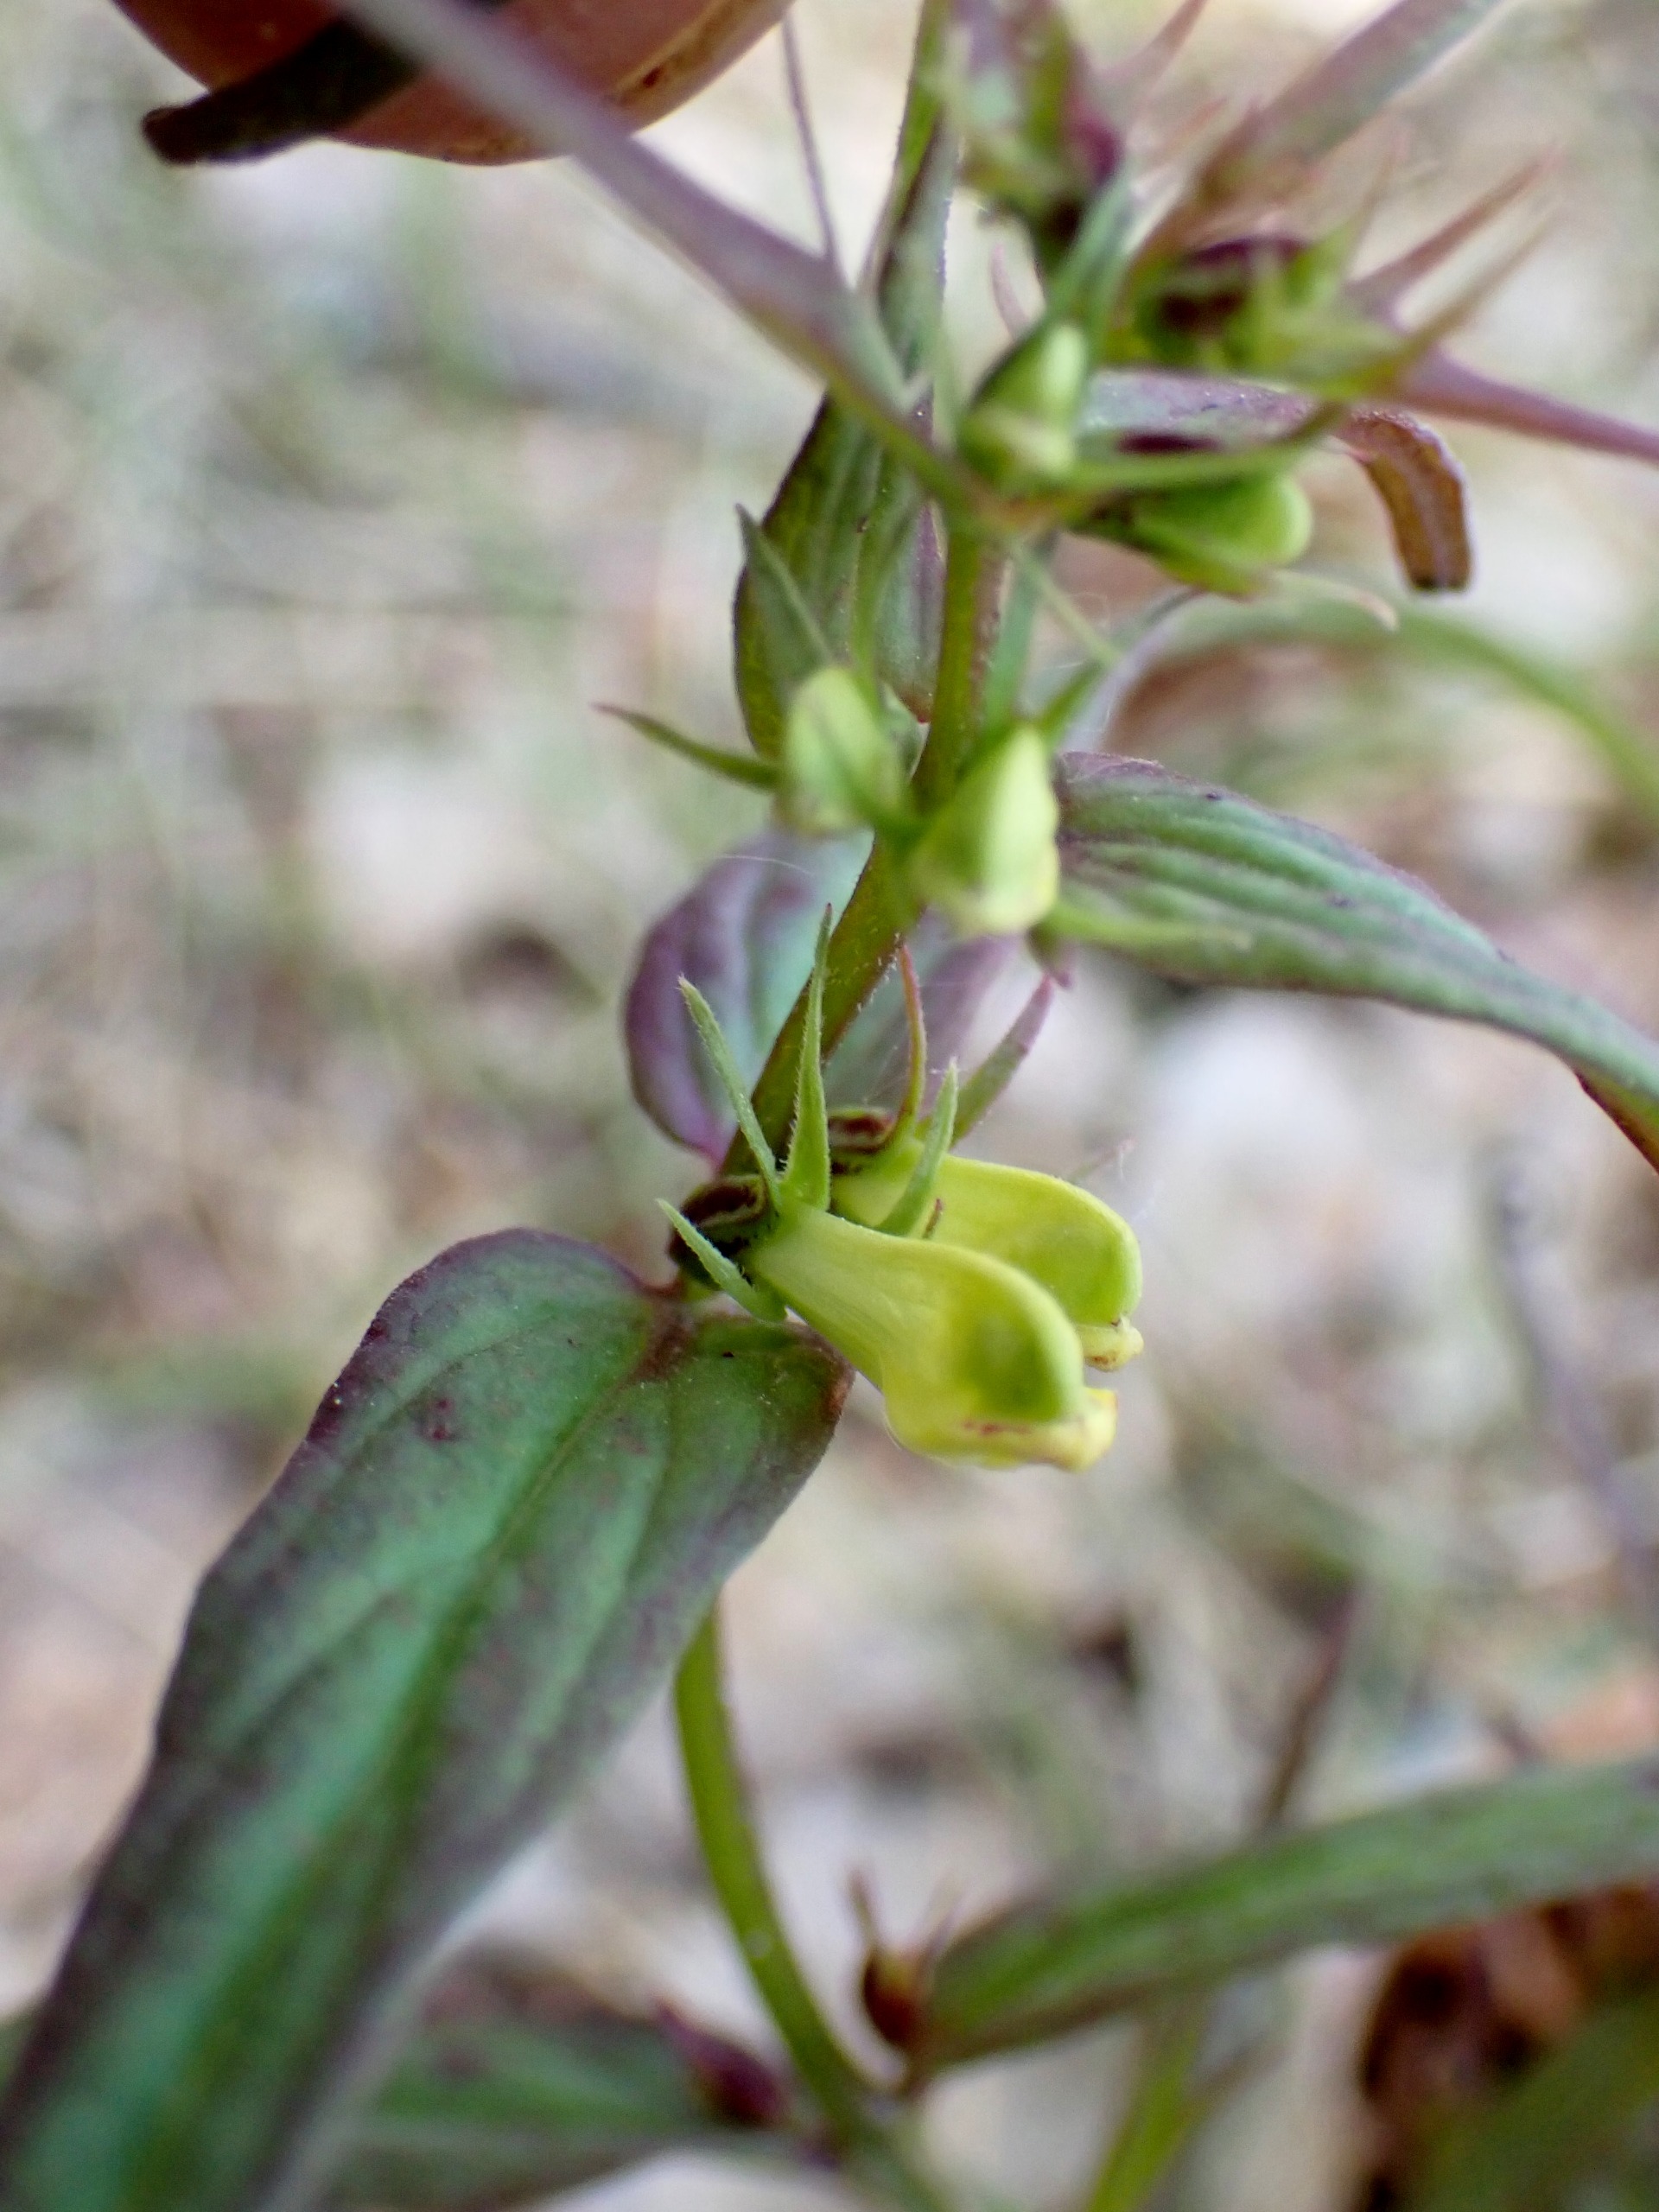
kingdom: Plantae
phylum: Tracheophyta
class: Magnoliopsida
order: Lamiales
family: Orobanchaceae
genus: Melampyrum
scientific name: Melampyrum pratense
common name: Almindelig kohvede
